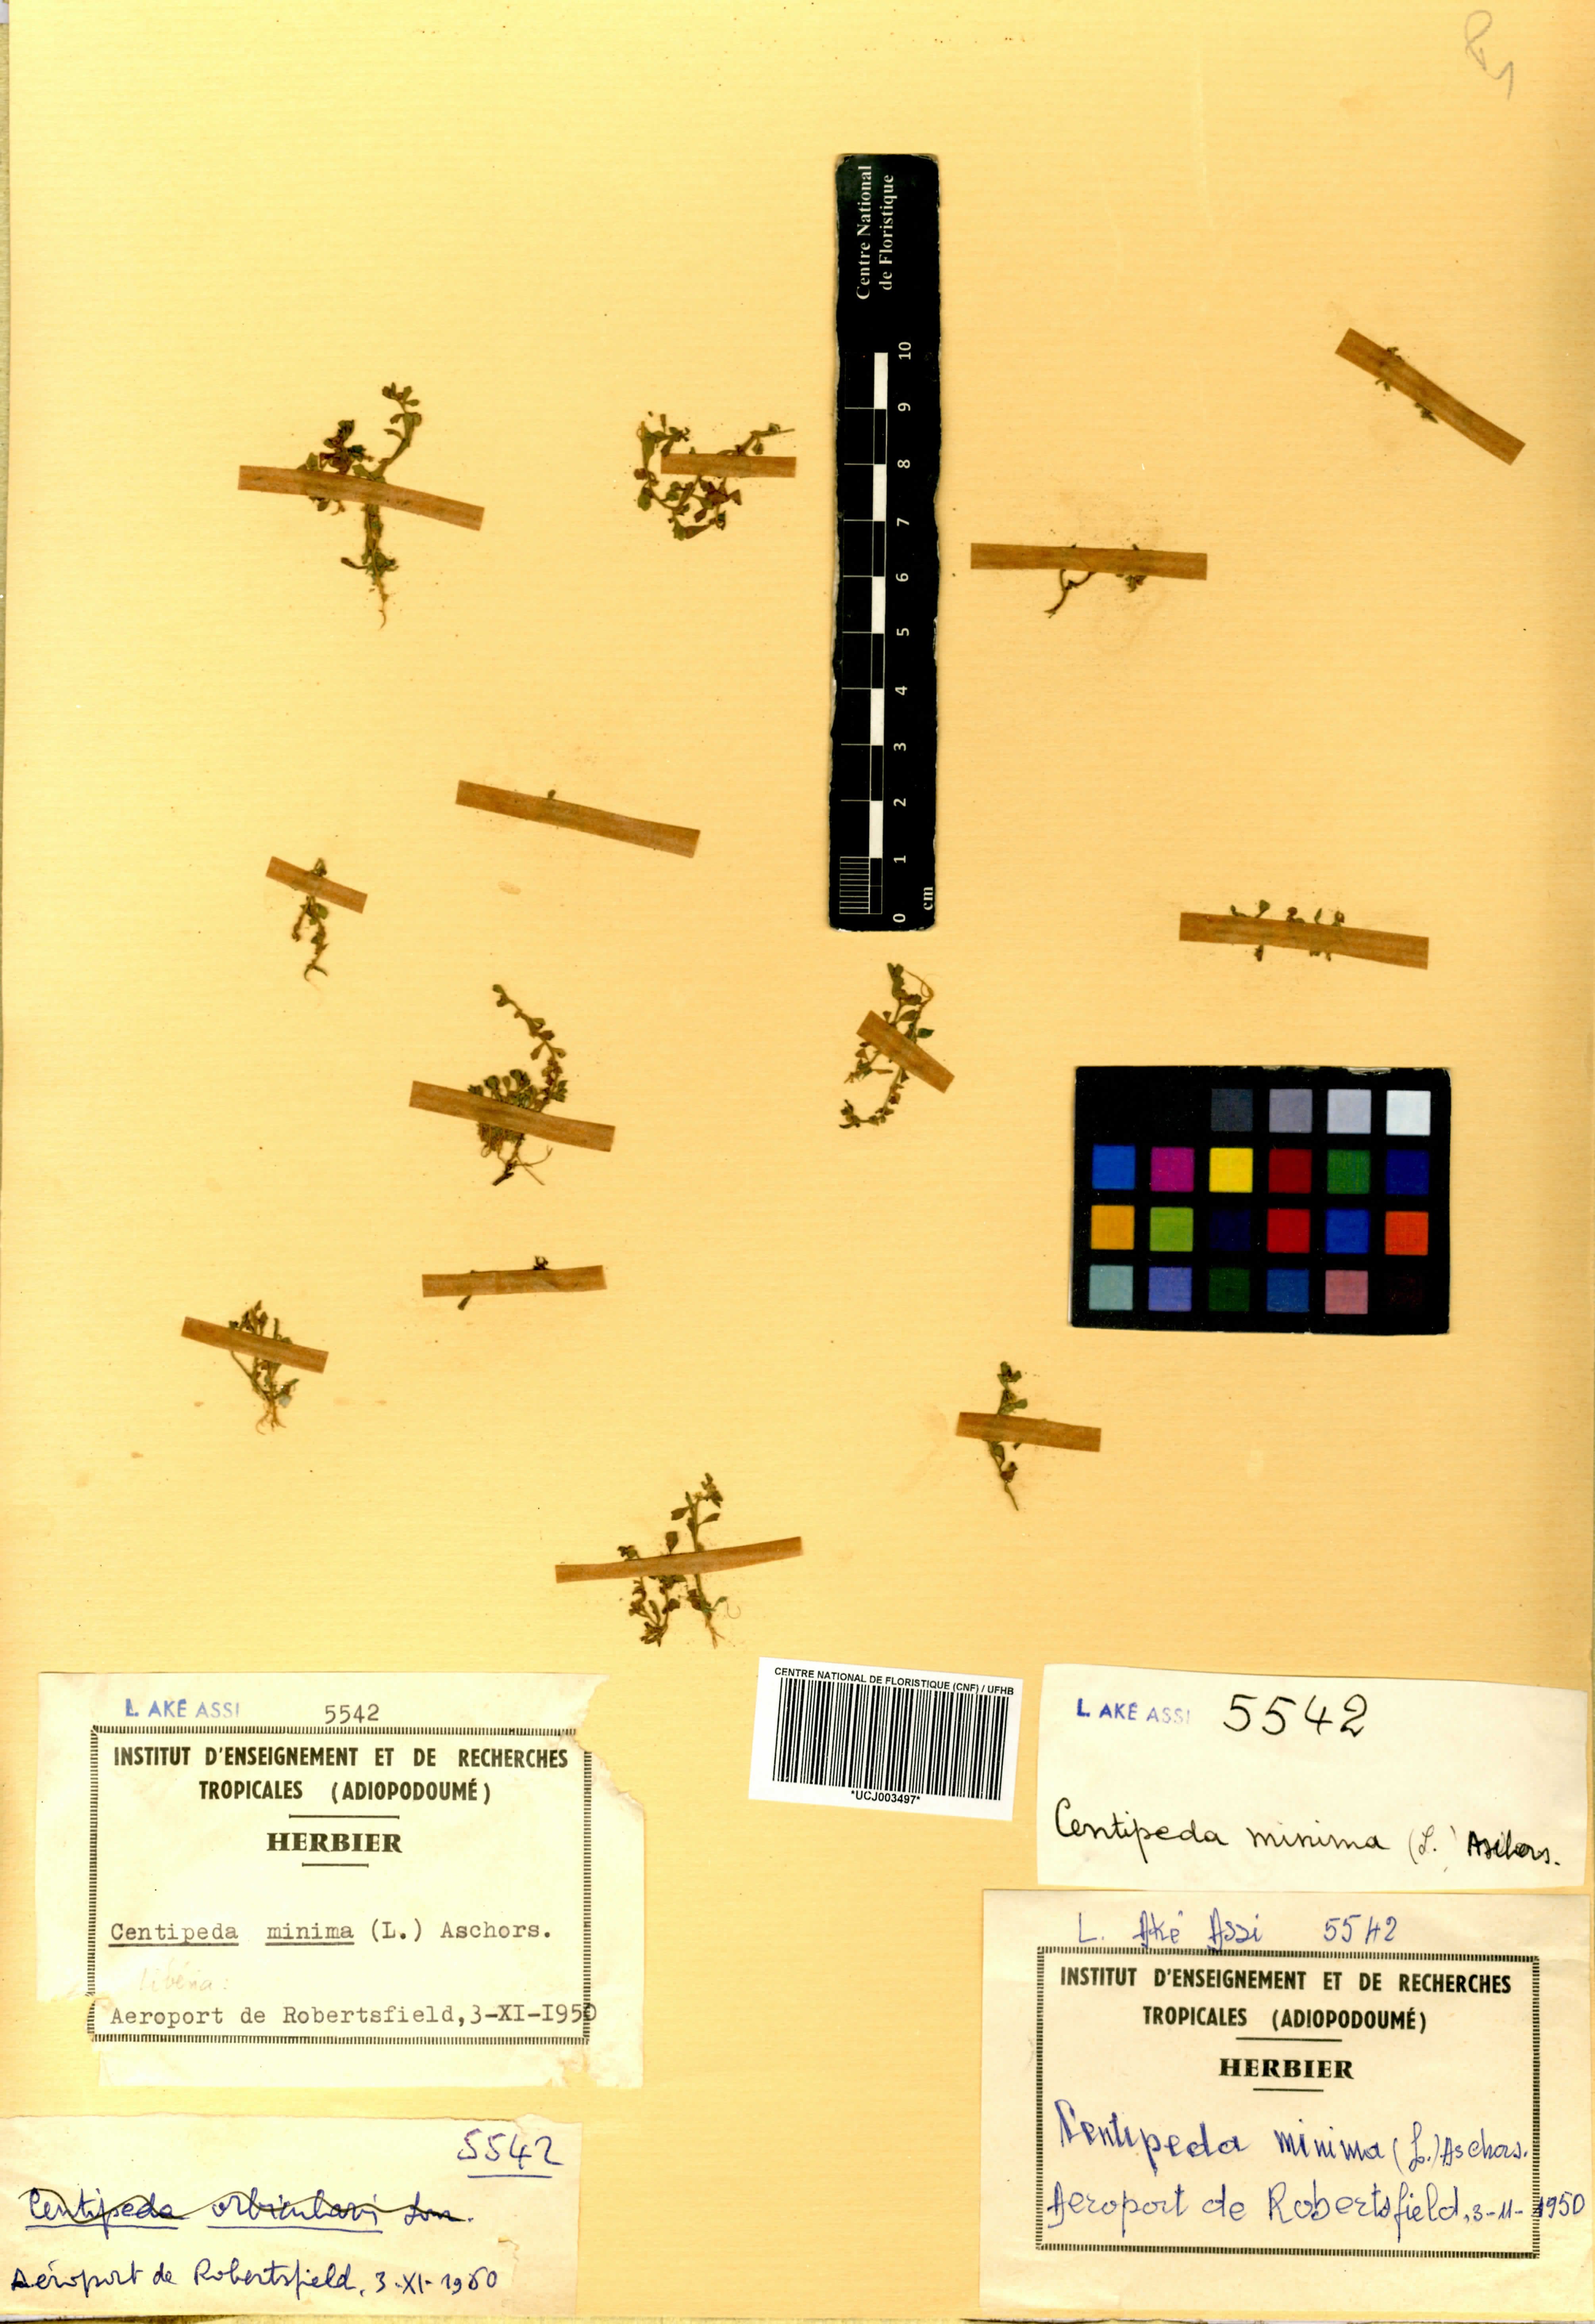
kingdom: Plantae
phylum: Tracheophyta
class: Magnoliopsida
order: Asterales
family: Asteraceae
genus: Centipeda
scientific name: Centipeda minima
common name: Spreading sneezeweed
